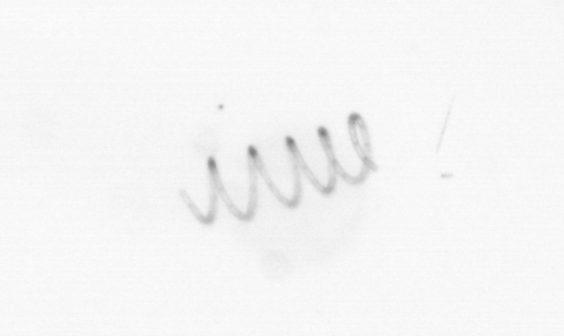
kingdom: Chromista
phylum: Ochrophyta
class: Bacillariophyceae
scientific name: Bacillariophyceae
